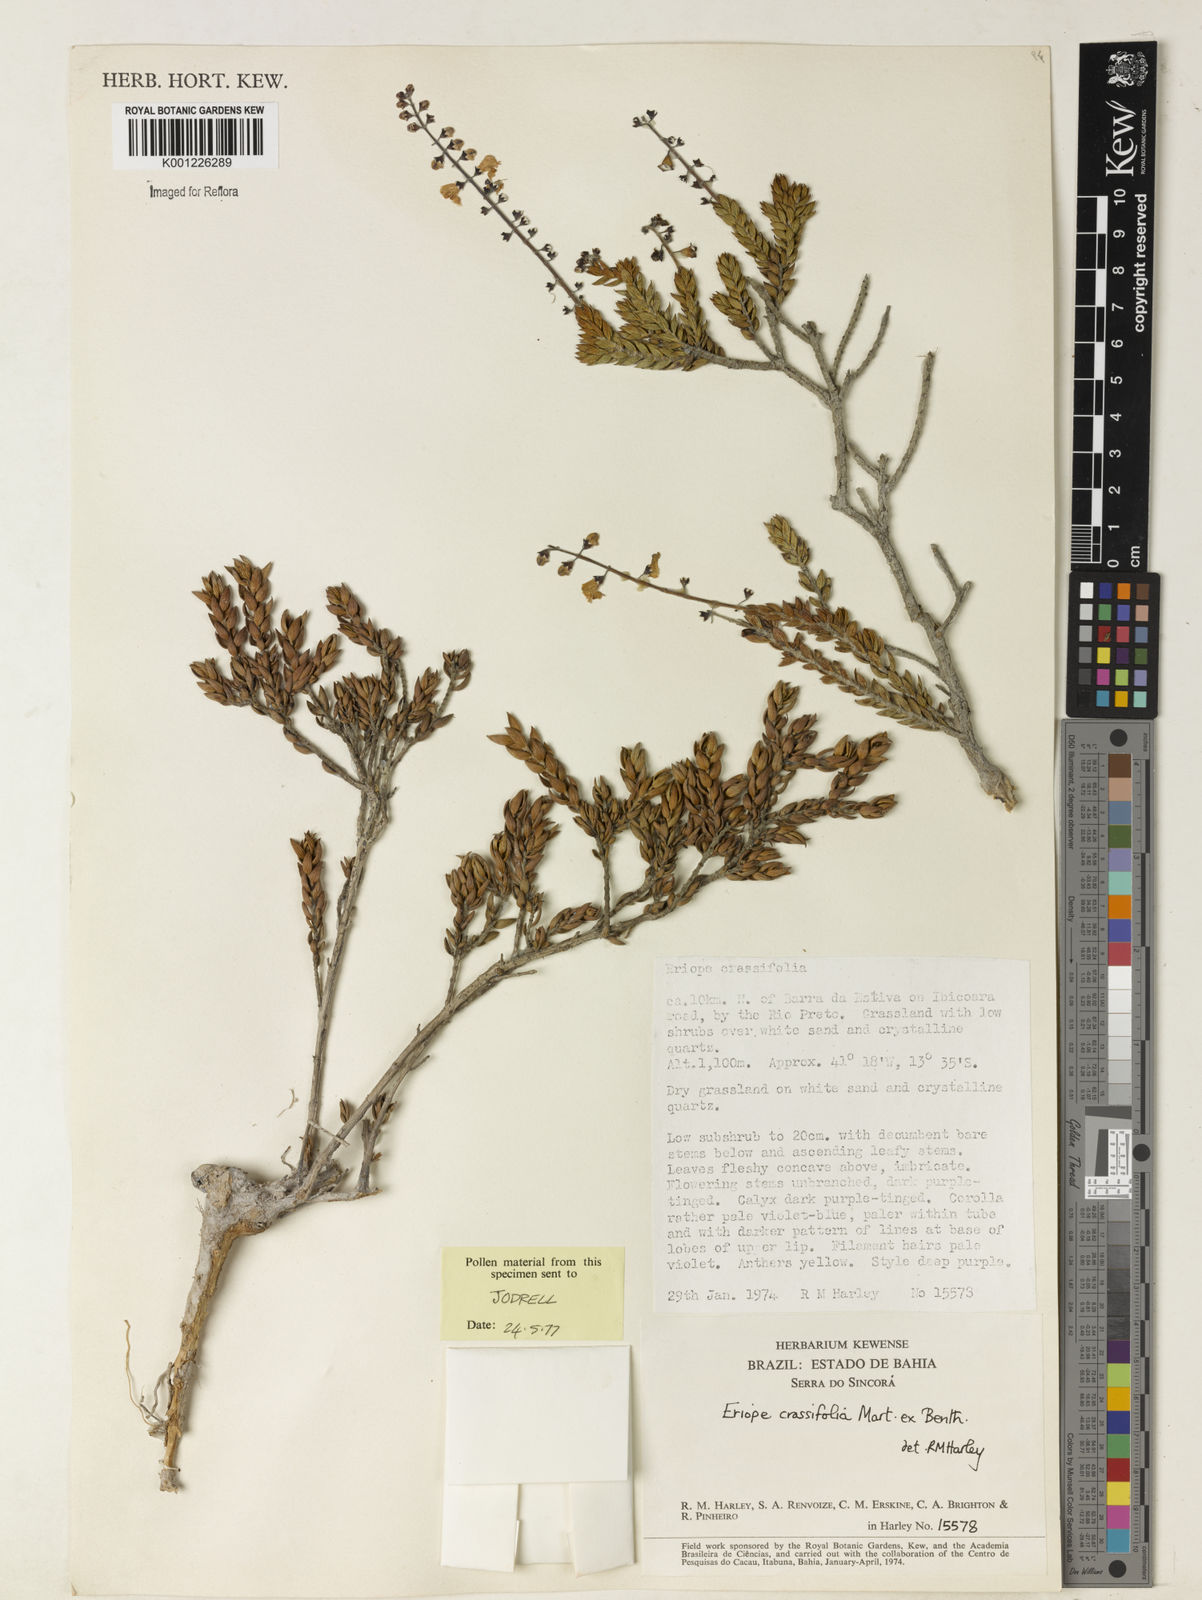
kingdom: Plantae
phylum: Tracheophyta
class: Magnoliopsida
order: Lamiales
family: Lamiaceae
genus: Eriope
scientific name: Eriope crassifolia
